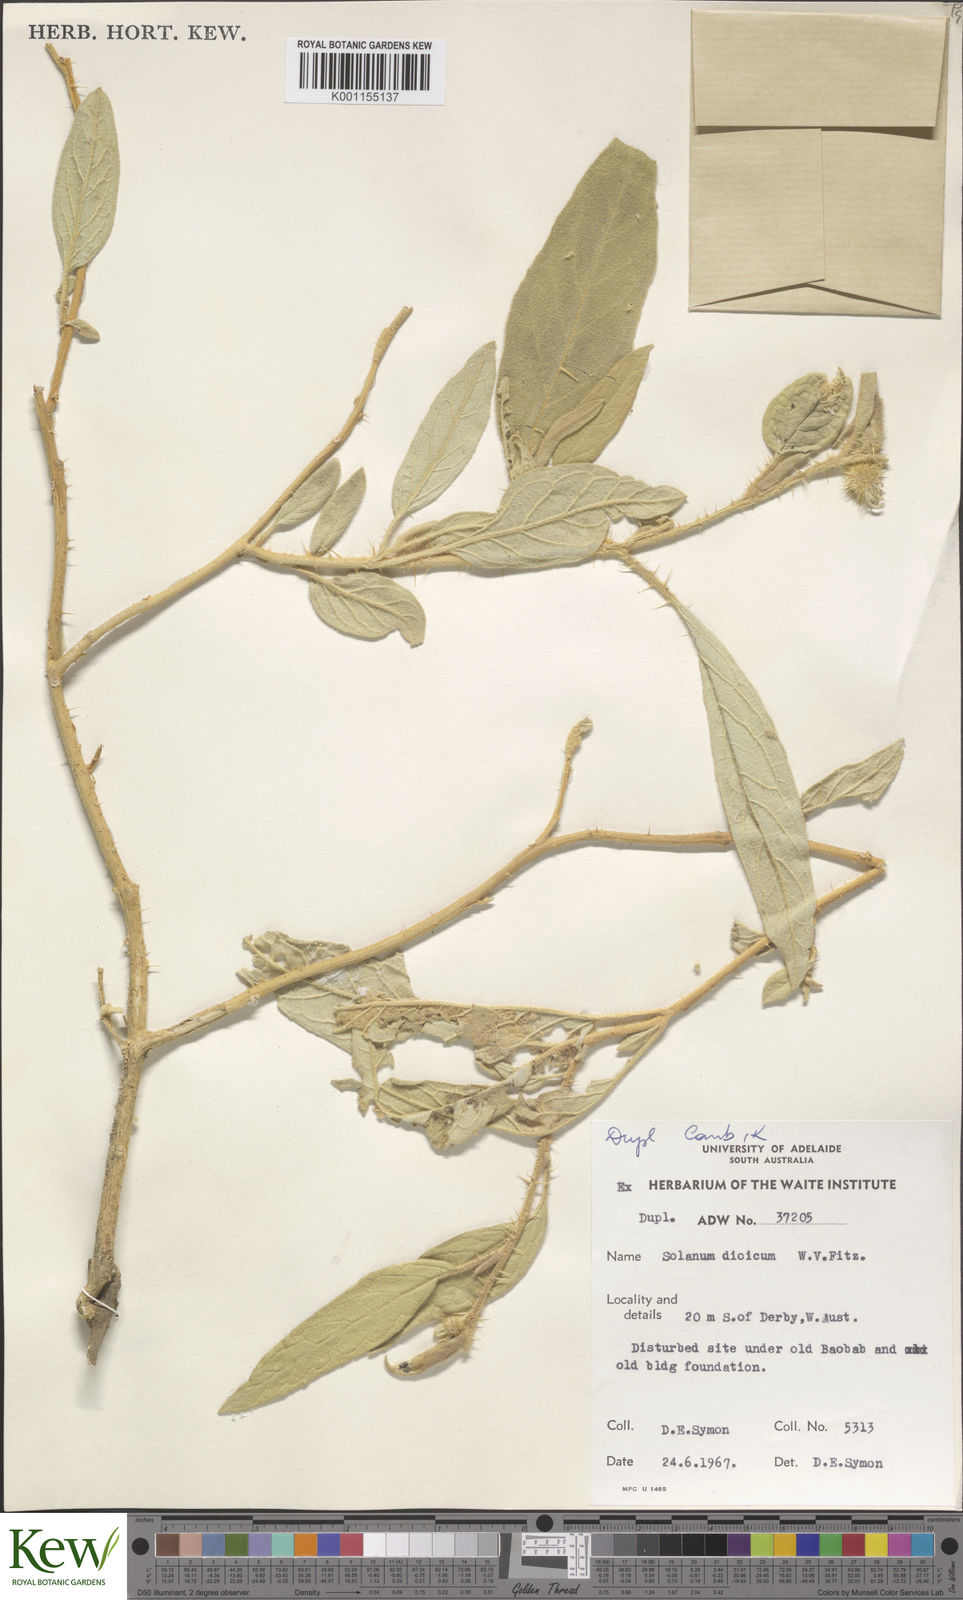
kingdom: Plantae
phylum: Tracheophyta
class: Magnoliopsida
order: Solanales
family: Solanaceae
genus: Solanum
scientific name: Solanum dioicum
